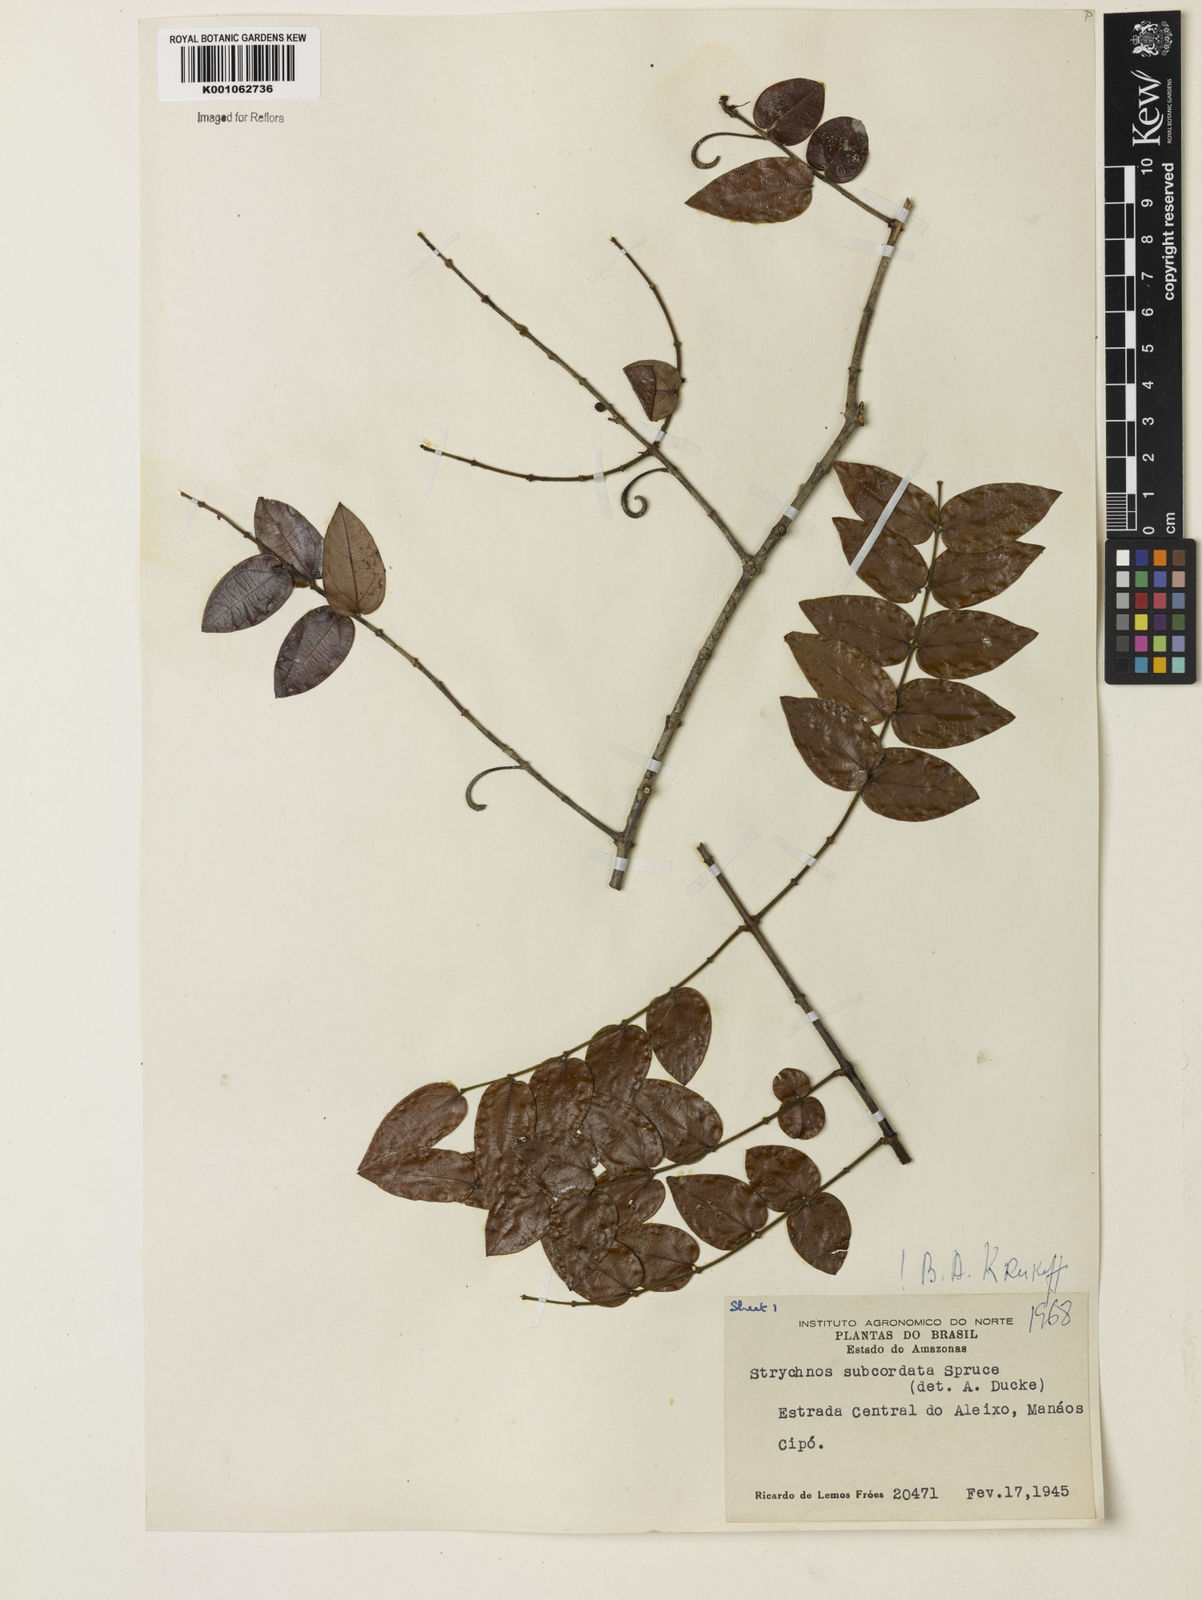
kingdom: Plantae
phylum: Tracheophyta
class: Magnoliopsida
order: Gentianales
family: Loganiaceae
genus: Strychnos
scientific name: Strychnos subcordata
